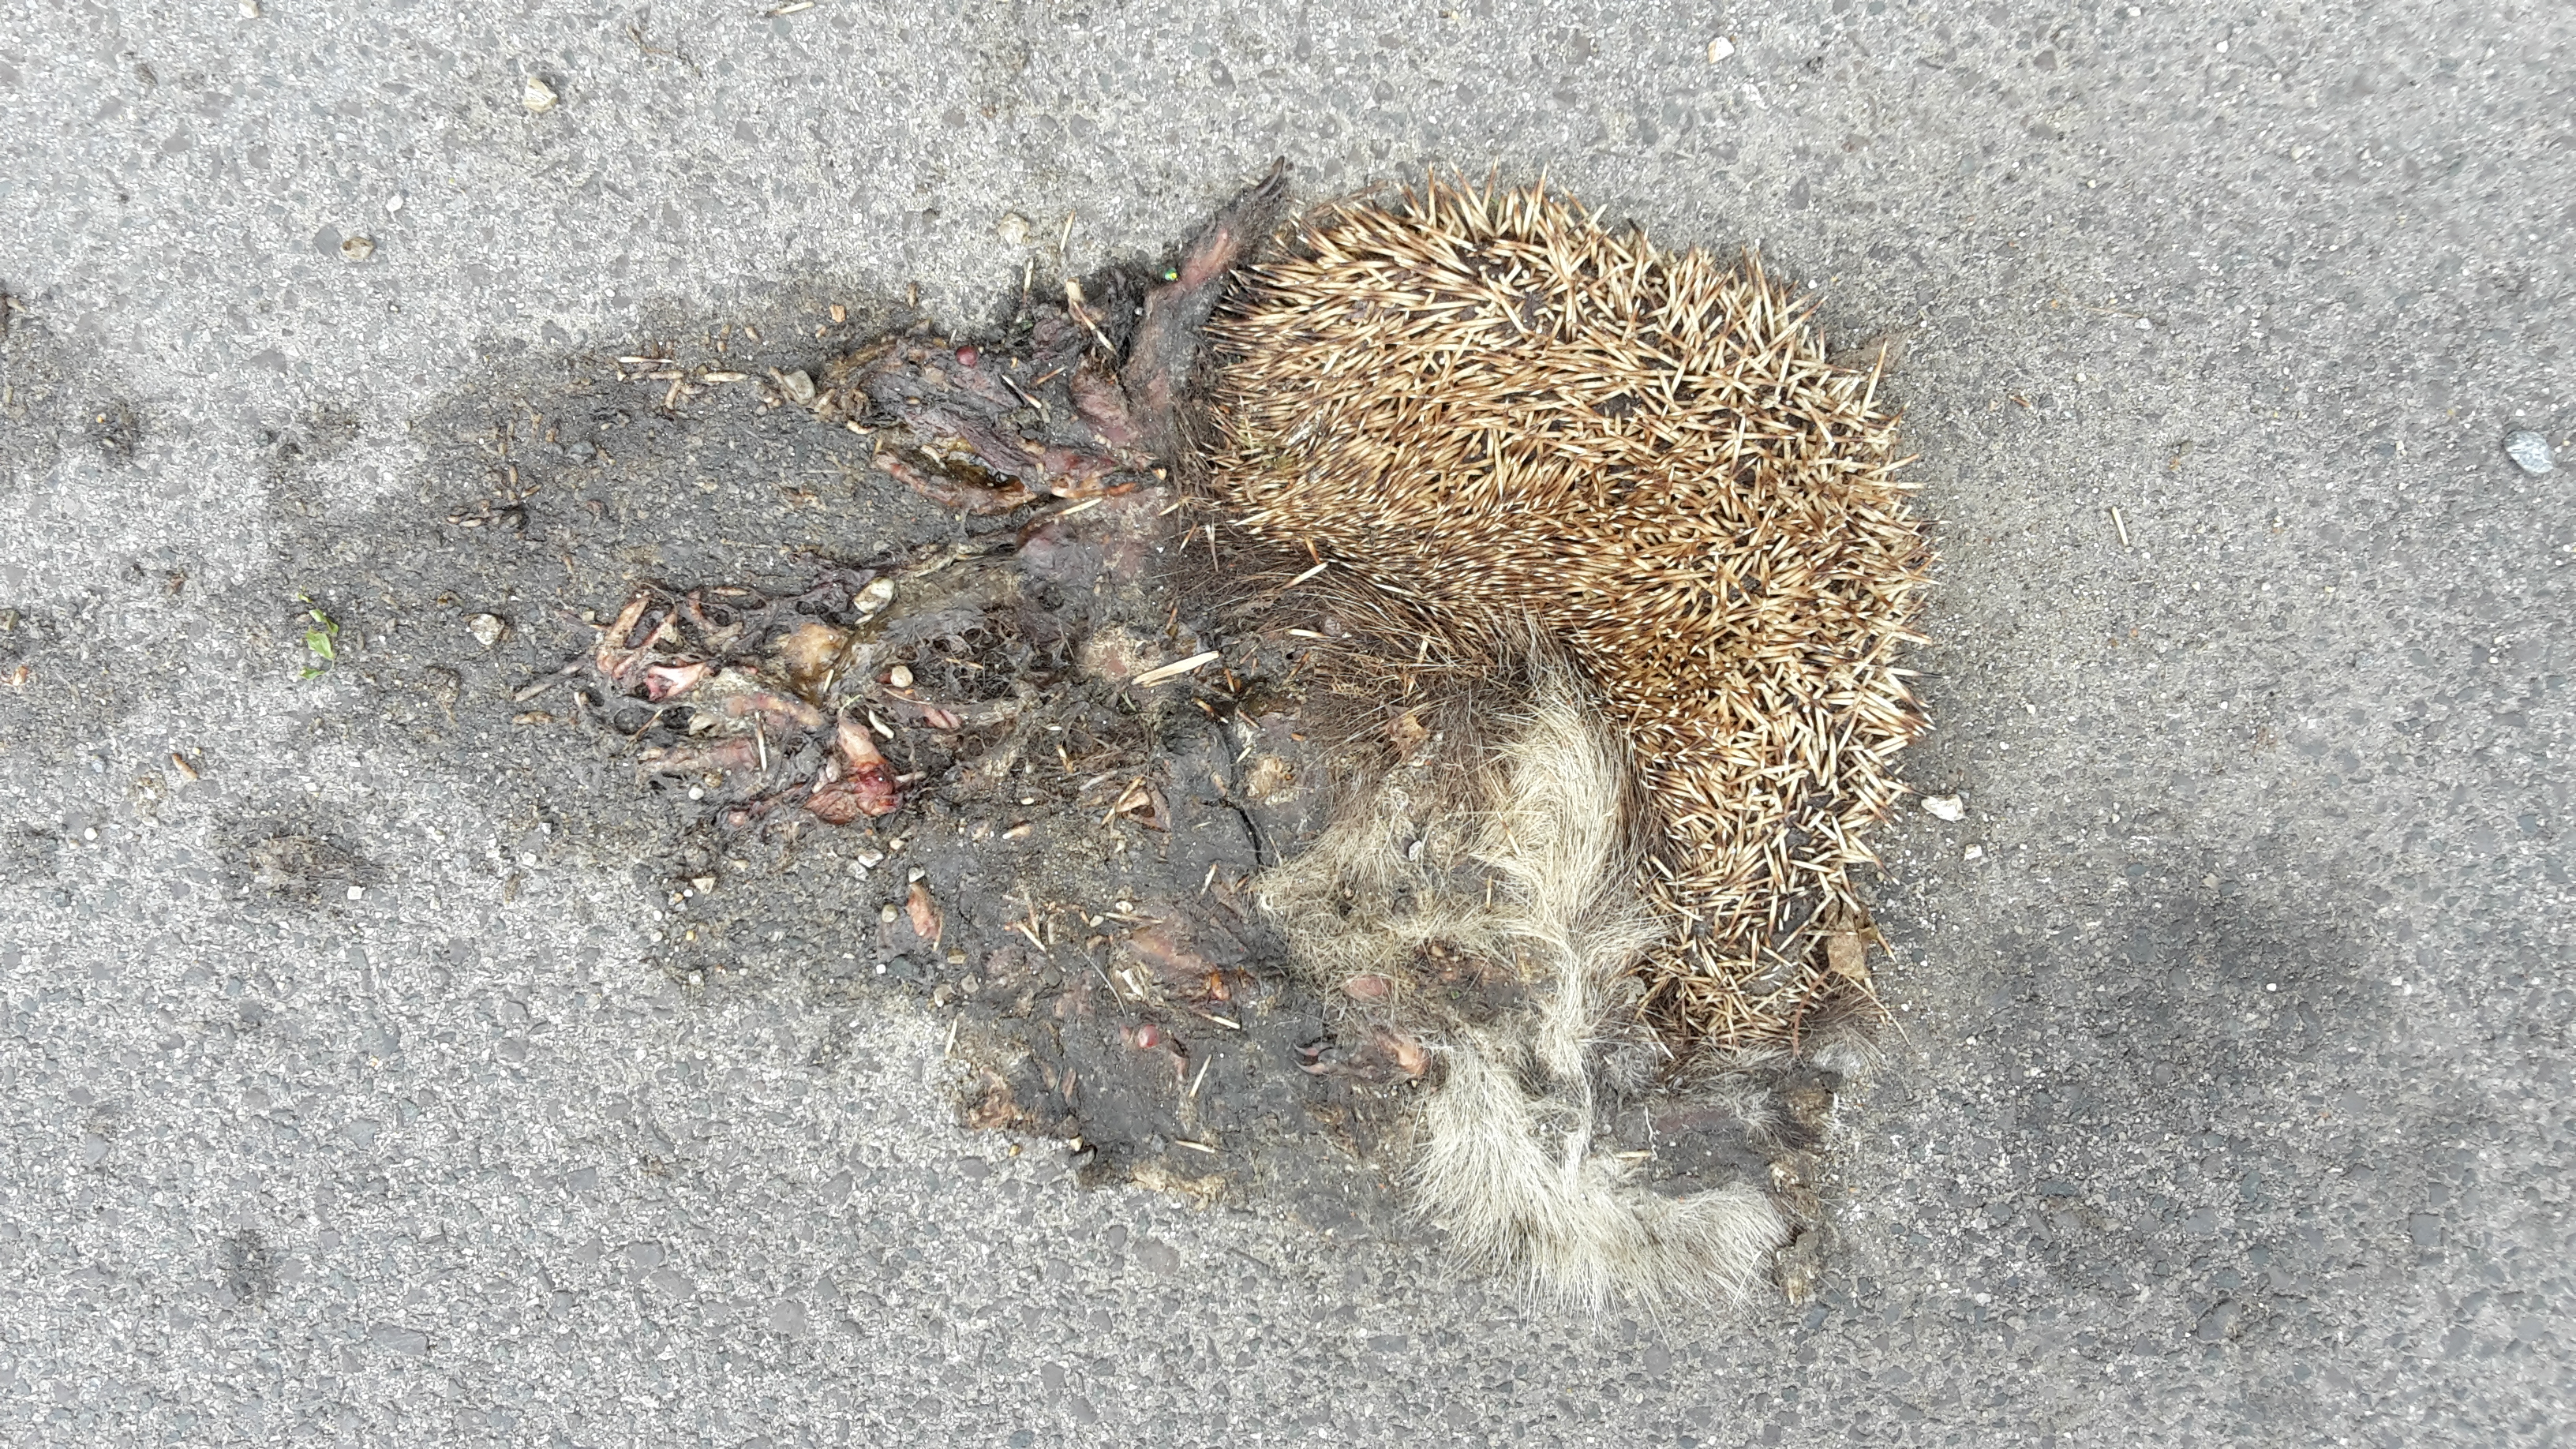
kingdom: Animalia
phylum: Chordata
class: Mammalia
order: Erinaceomorpha
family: Erinaceidae
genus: Erinaceus
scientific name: Erinaceus
